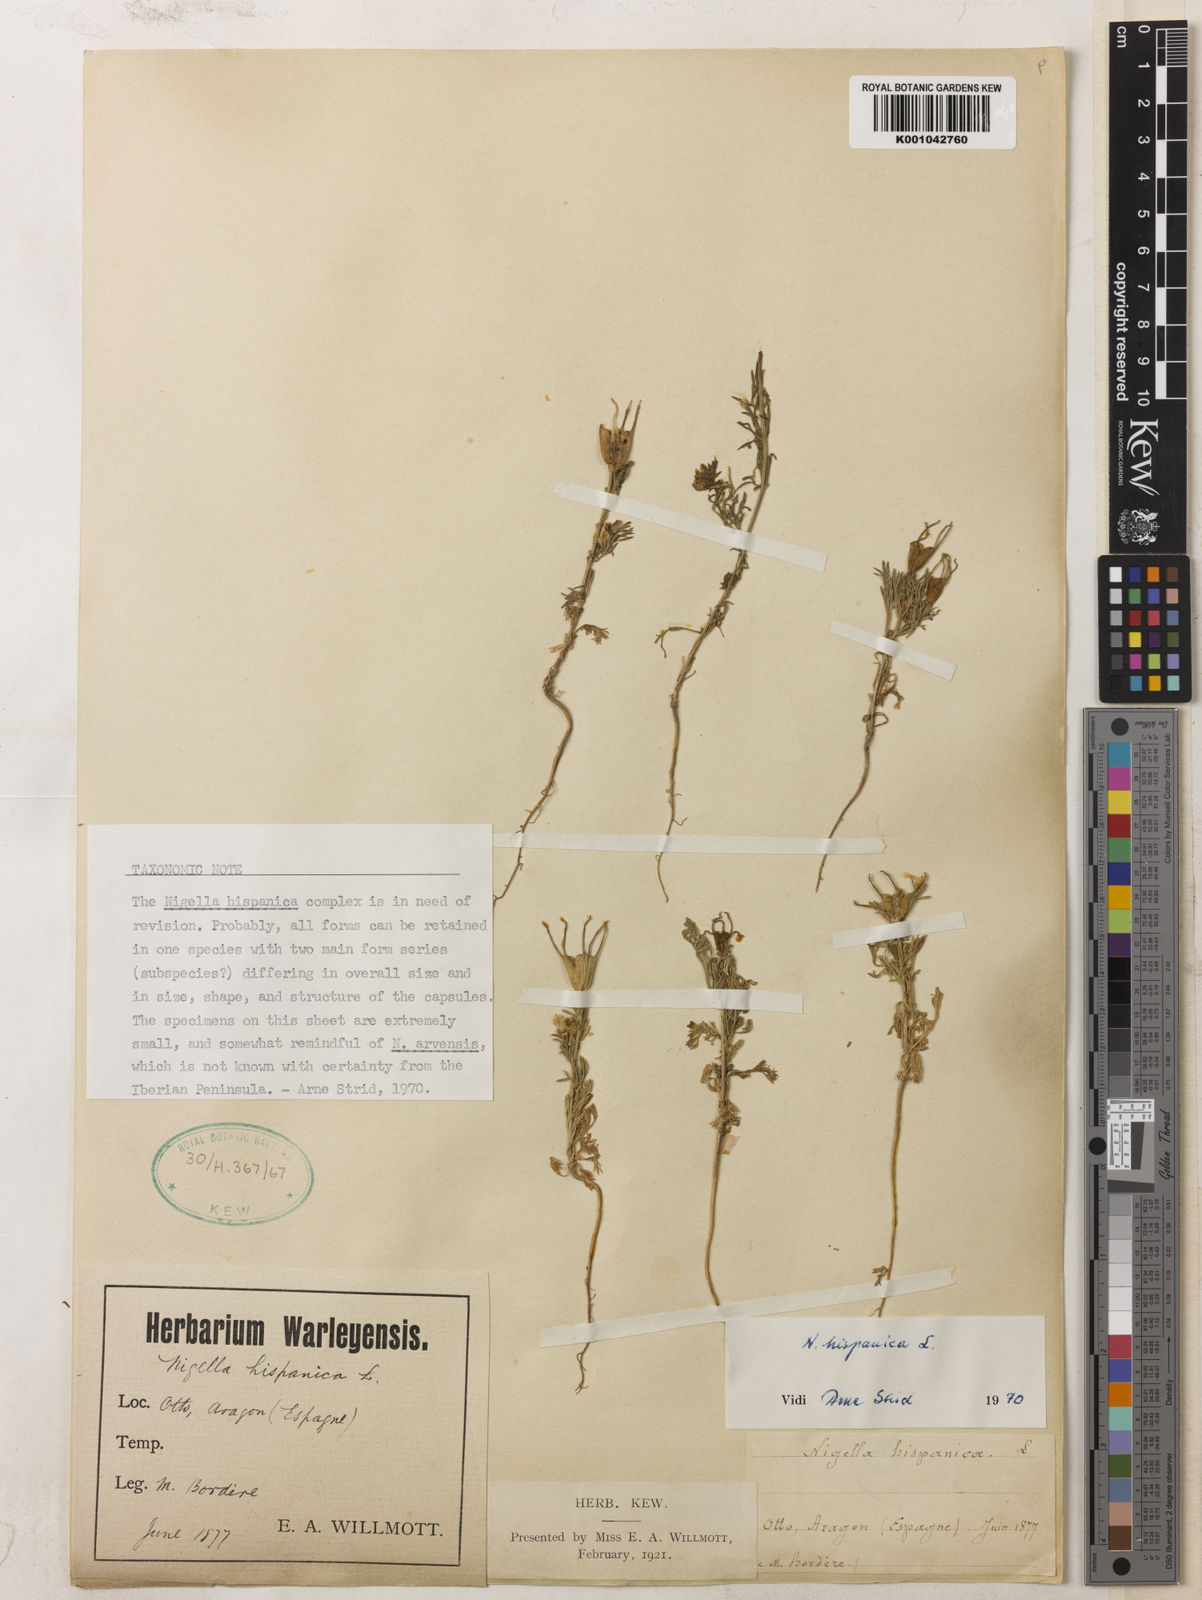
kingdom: Plantae
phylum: Tracheophyta
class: Magnoliopsida
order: Ranunculales
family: Ranunculaceae
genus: Nigella
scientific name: Nigella hispanica
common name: Fennel-flower
